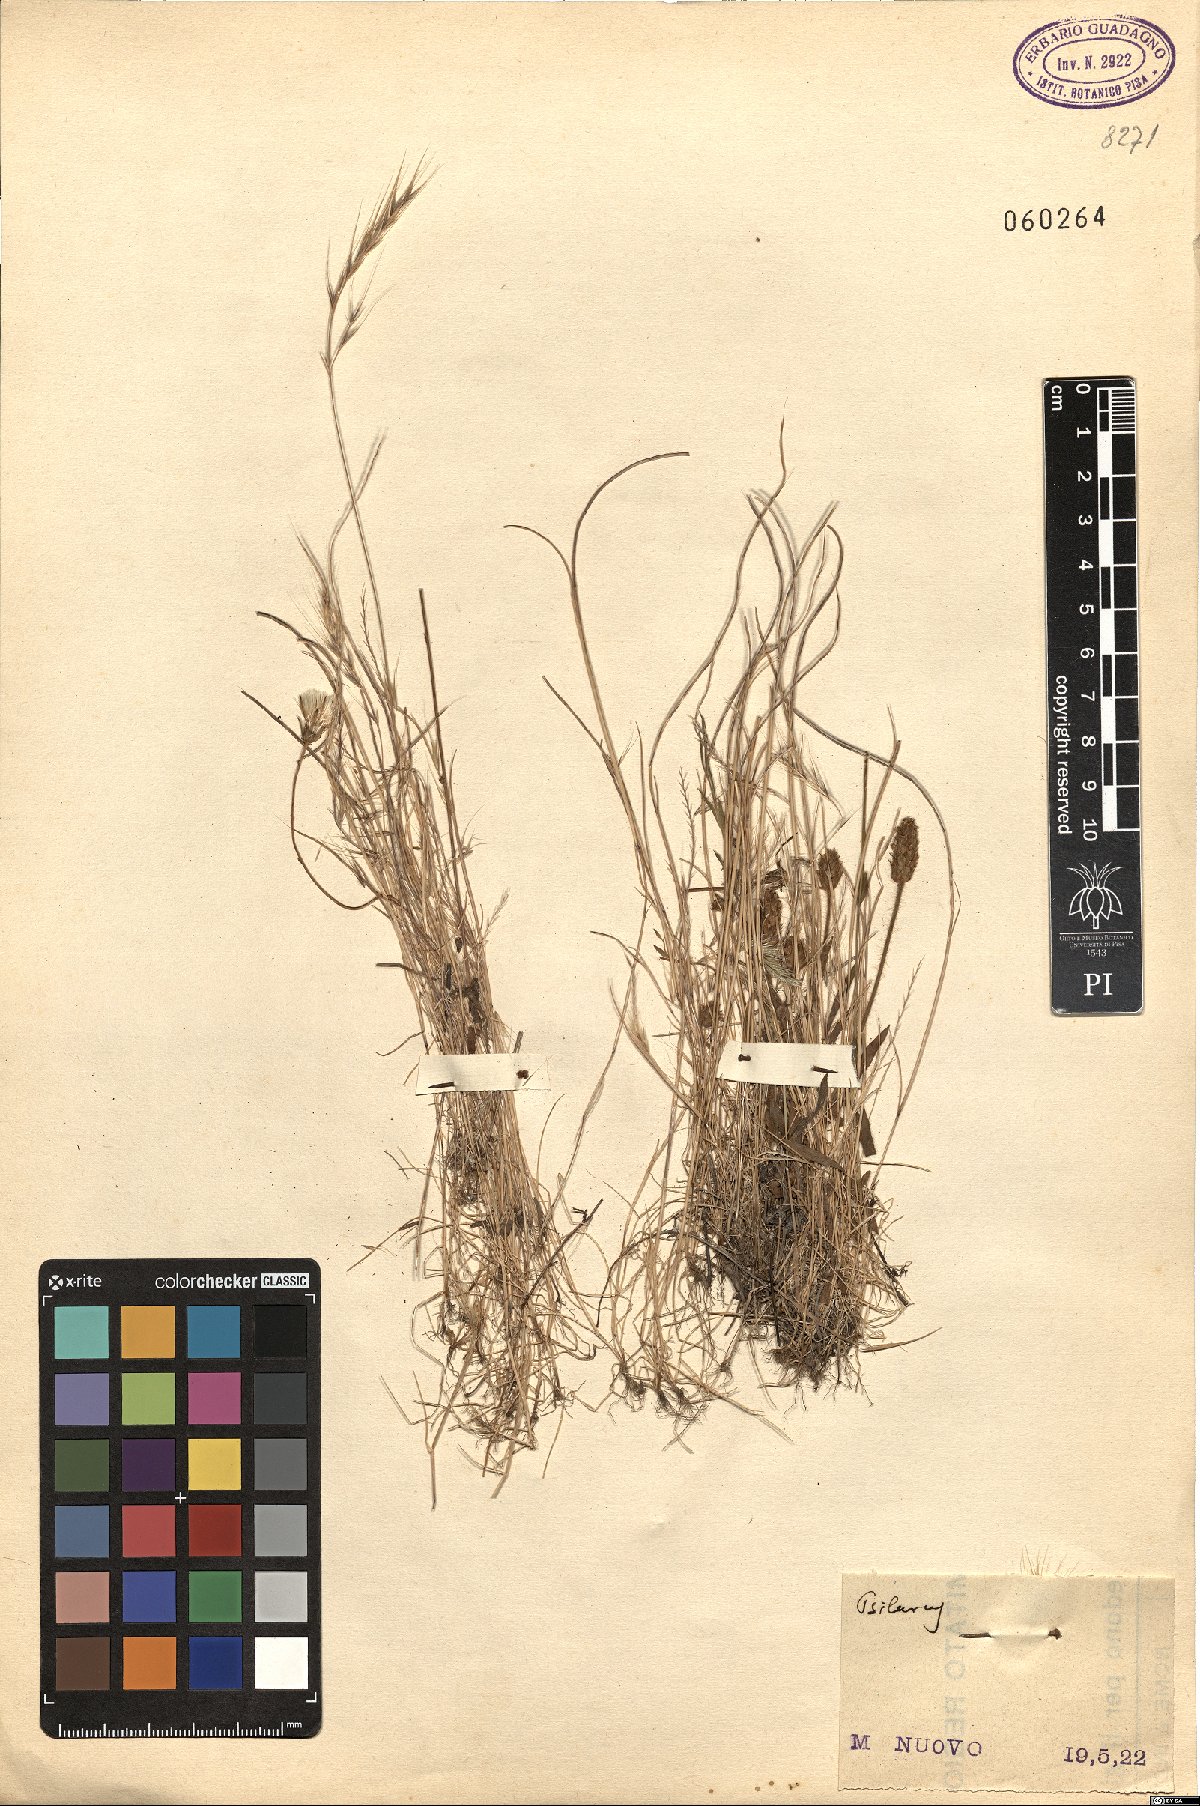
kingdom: Plantae
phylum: Tracheophyta
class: Liliopsida
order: Poales
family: Poaceae
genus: Festuca
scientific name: Festuca
